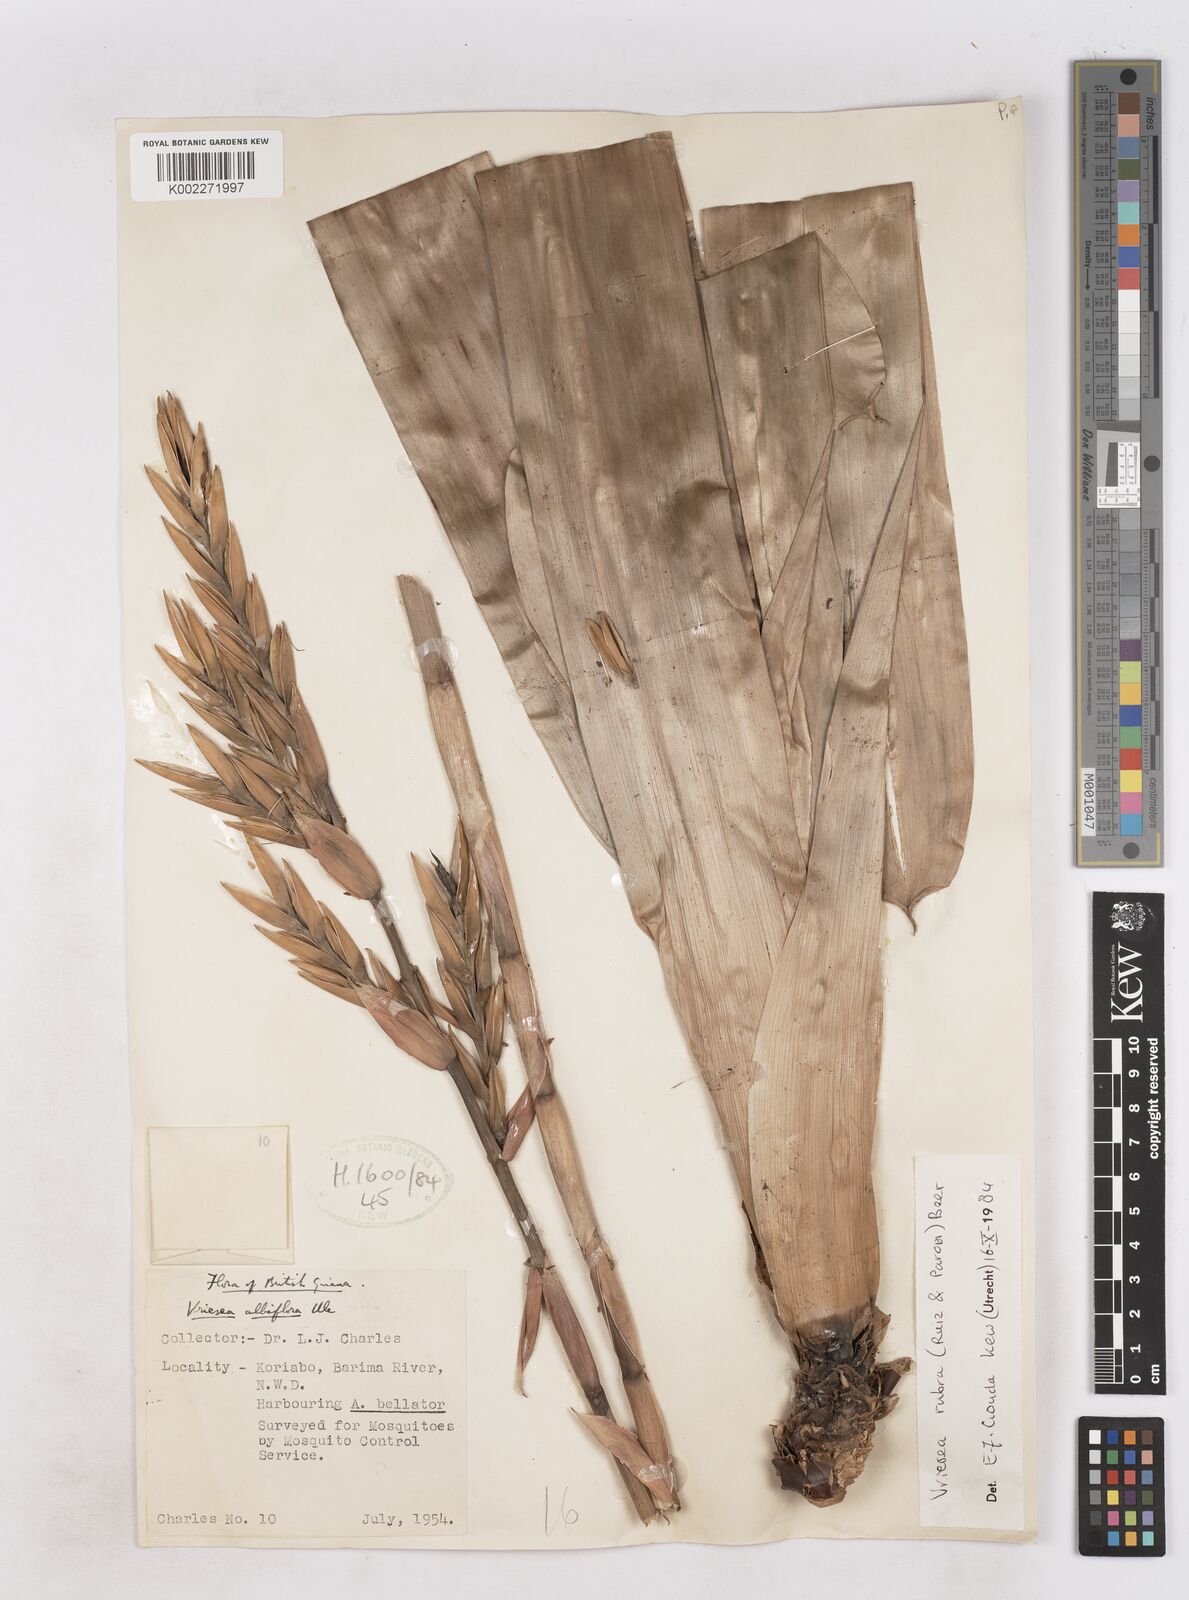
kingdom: Plantae
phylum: Tracheophyta
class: Liliopsida
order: Poales
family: Bromeliaceae
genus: Vriesea
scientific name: Vriesea rubra
